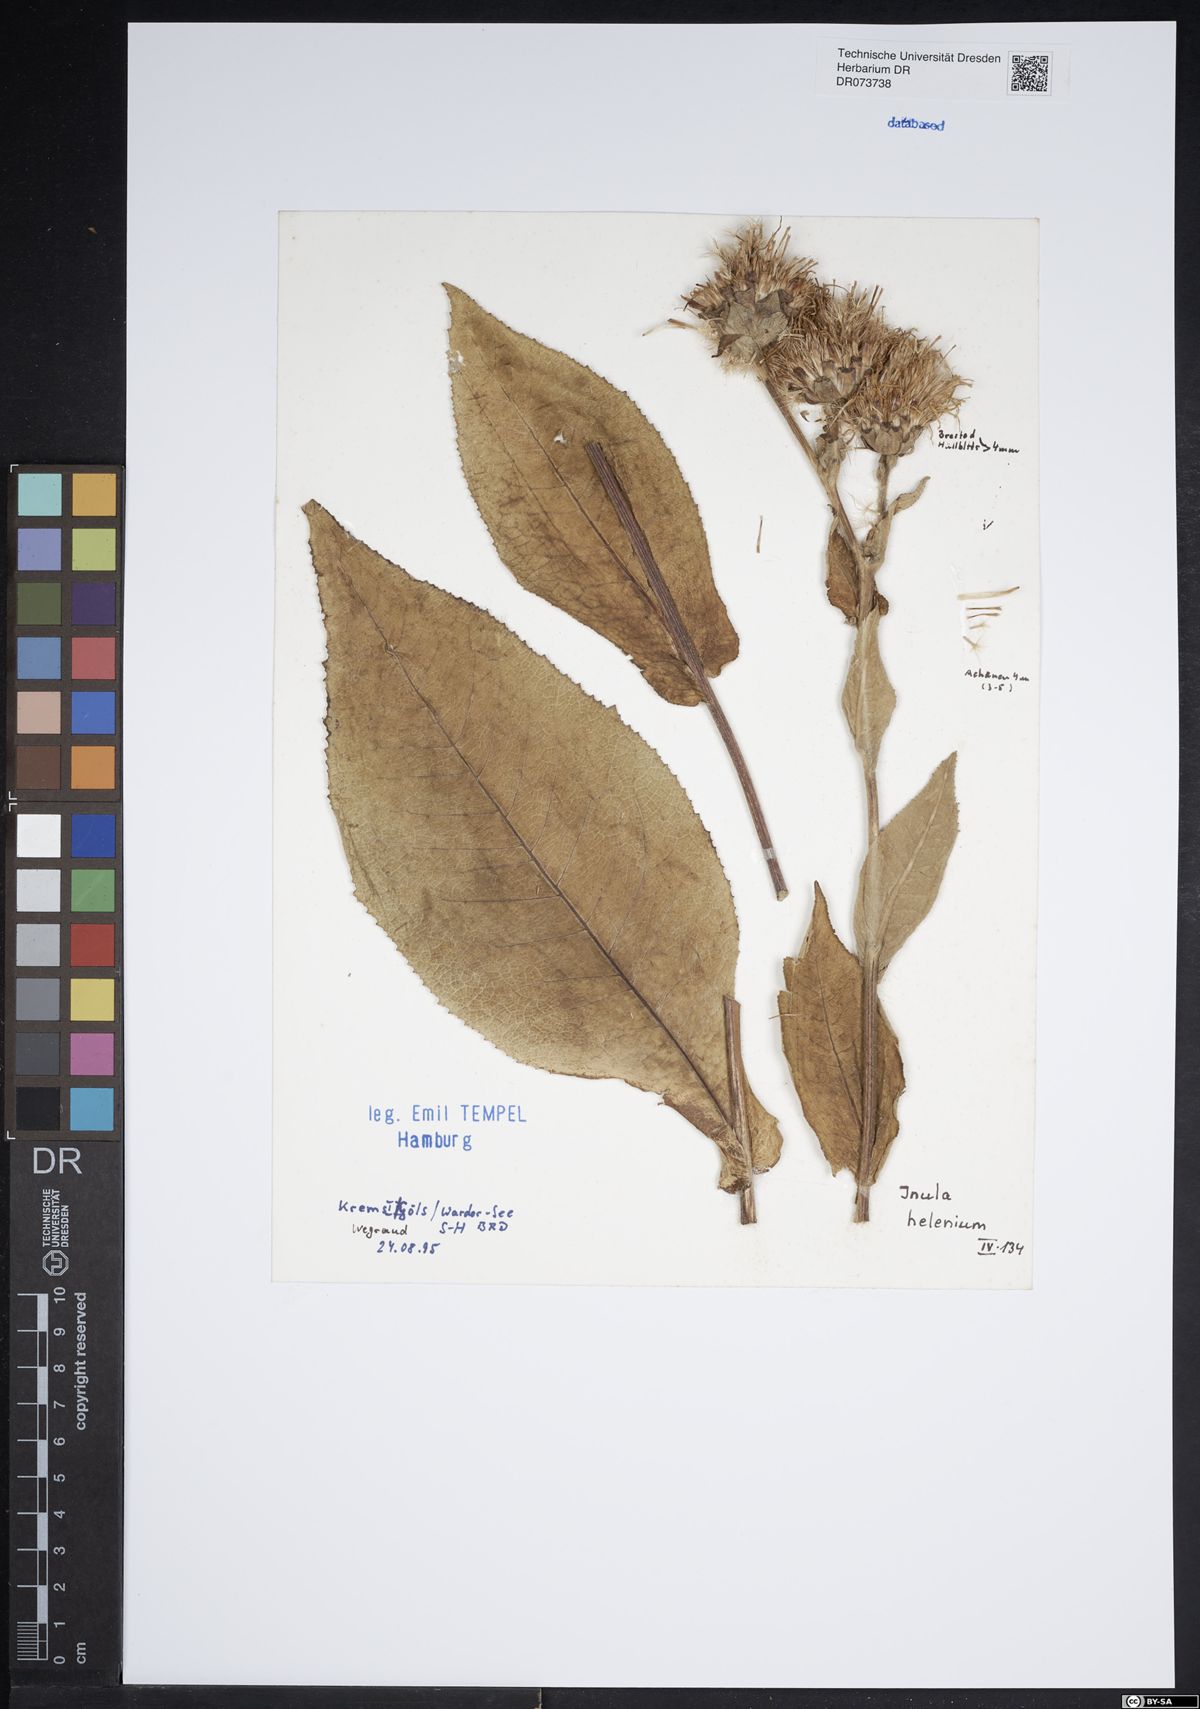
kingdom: Plantae
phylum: Tracheophyta
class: Magnoliopsida
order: Asterales
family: Asteraceae
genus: Inula
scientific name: Inula helenium
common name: Elecampane
